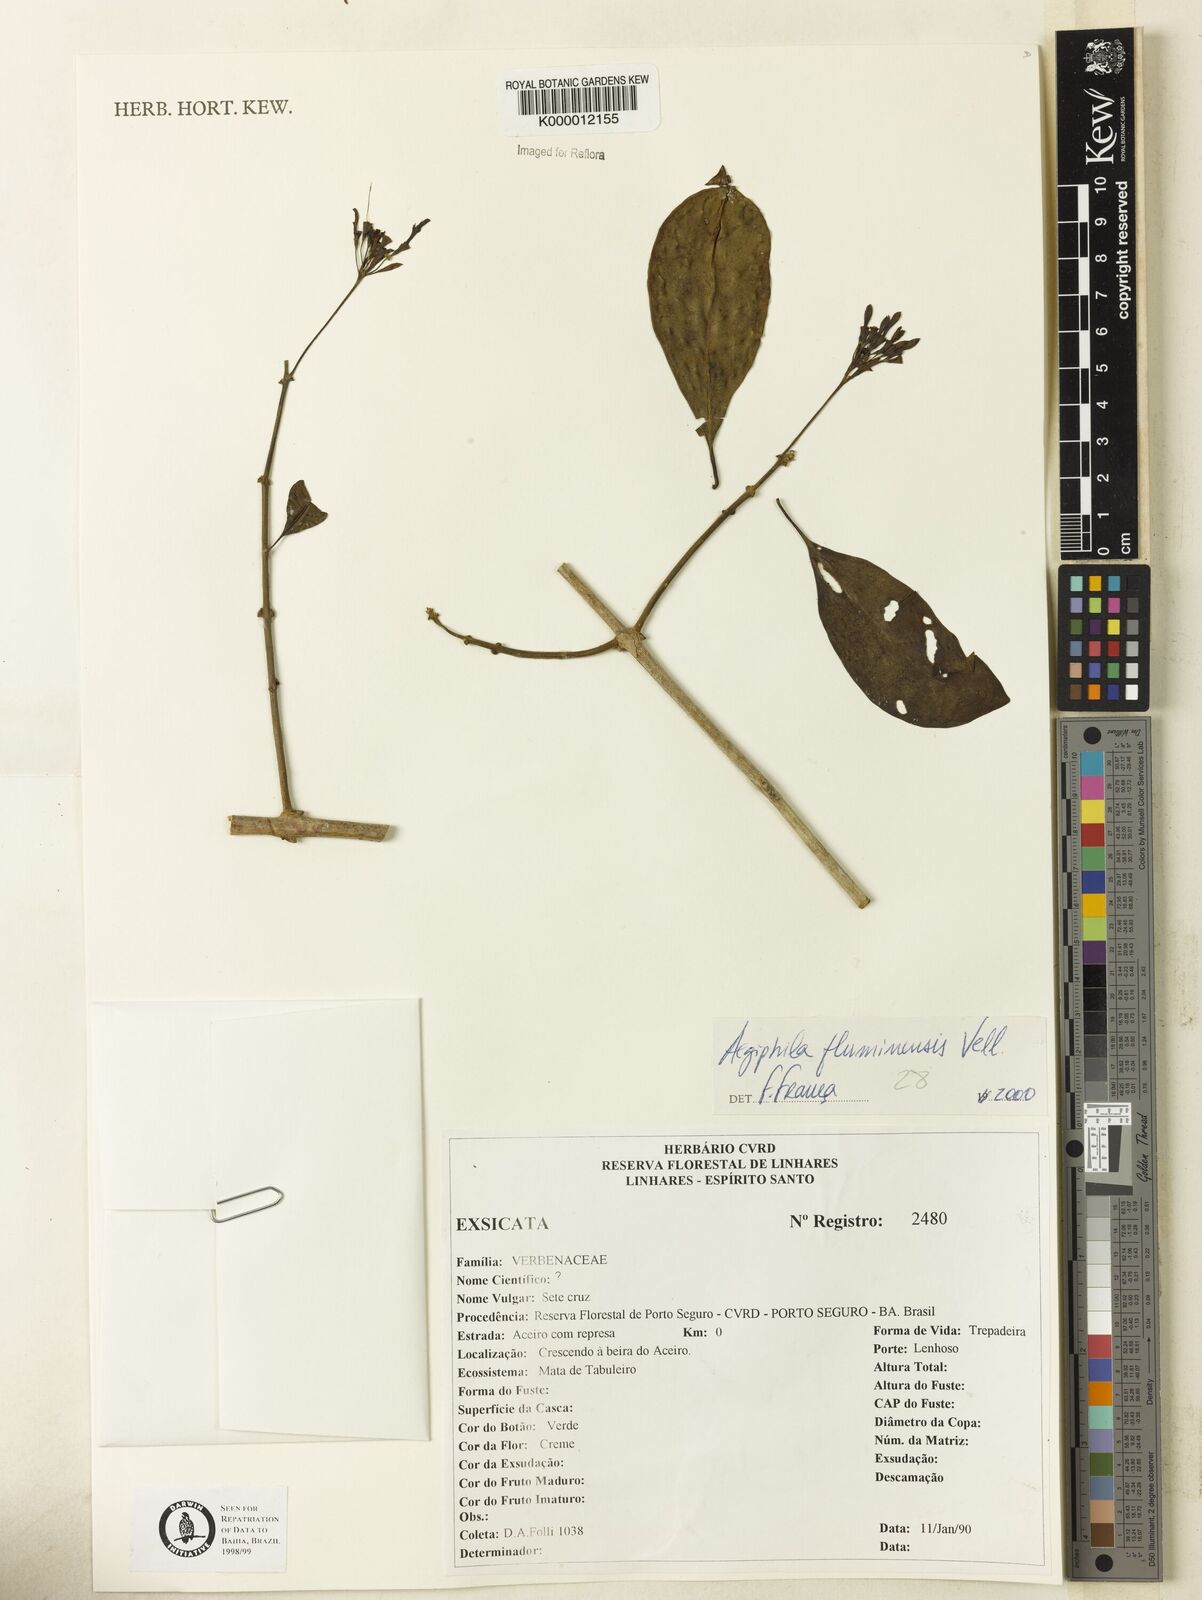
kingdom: Plantae
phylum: Tracheophyta
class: Magnoliopsida
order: Lamiales
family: Lamiaceae
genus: Aegiphila
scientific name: Aegiphila fluminensis
